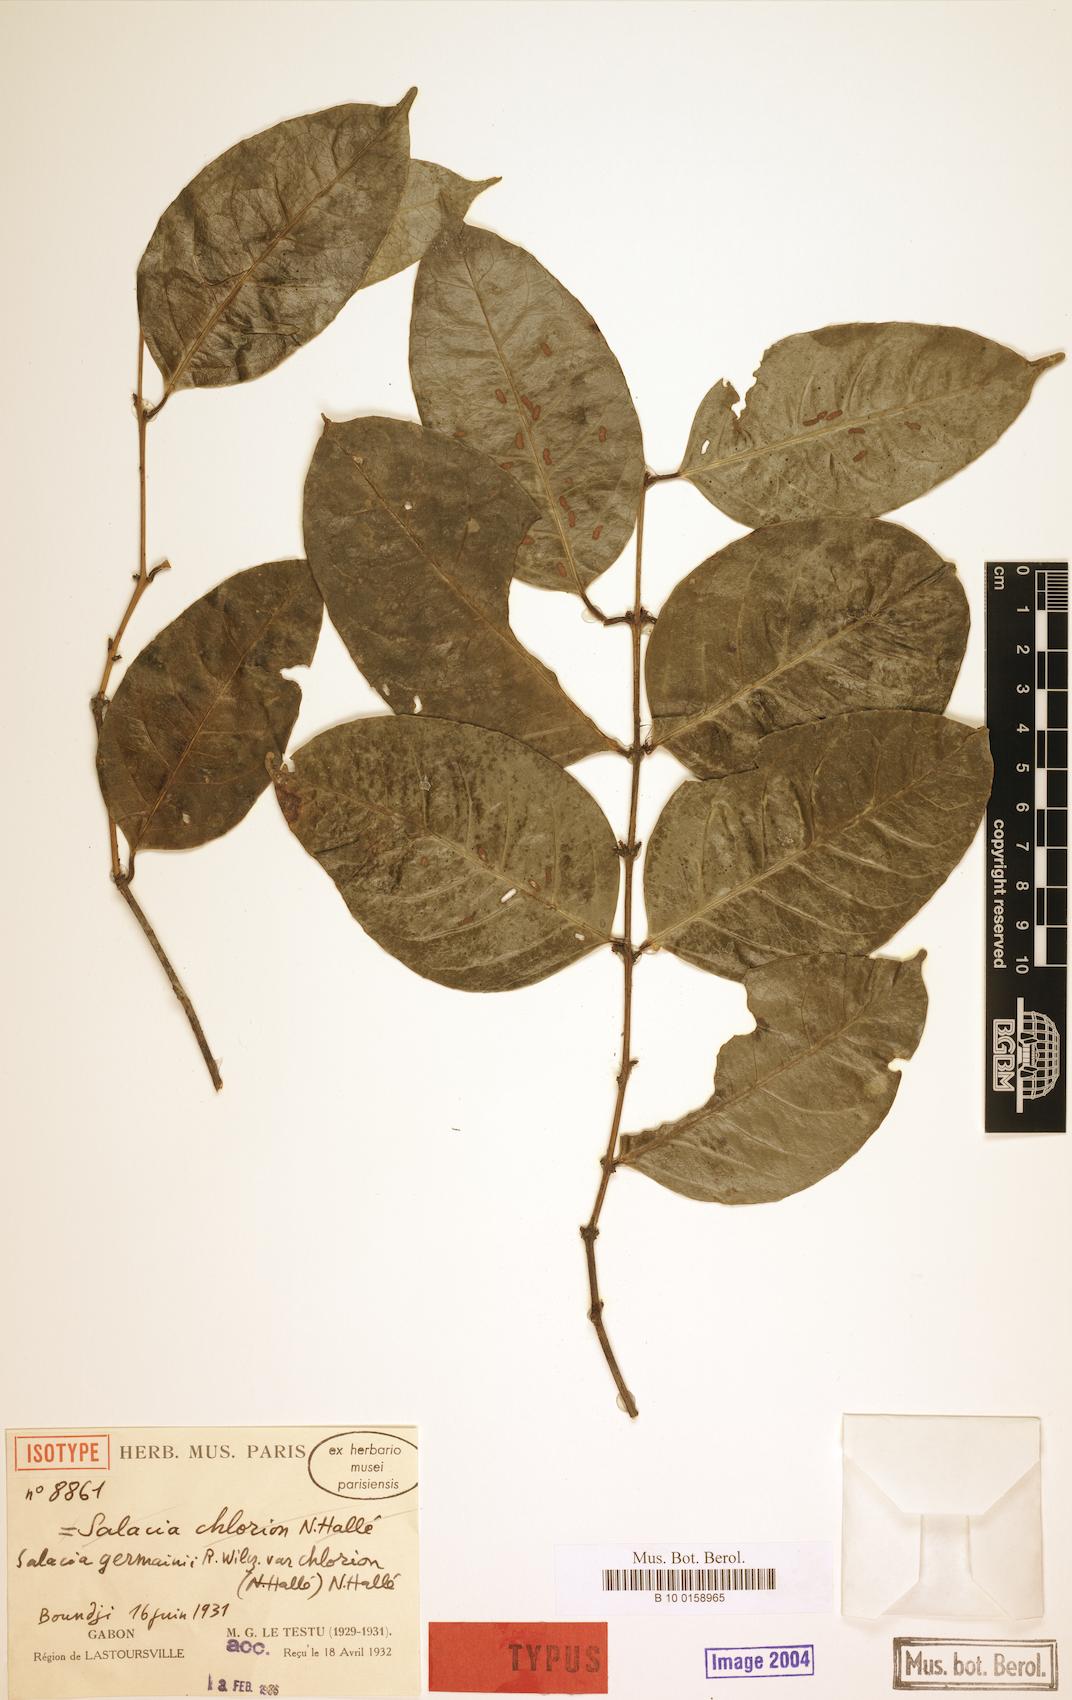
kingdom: Plantae
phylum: Tracheophyta
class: Magnoliopsida
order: Celastrales
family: Celastraceae
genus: Salacia
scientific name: Salacia germainii
